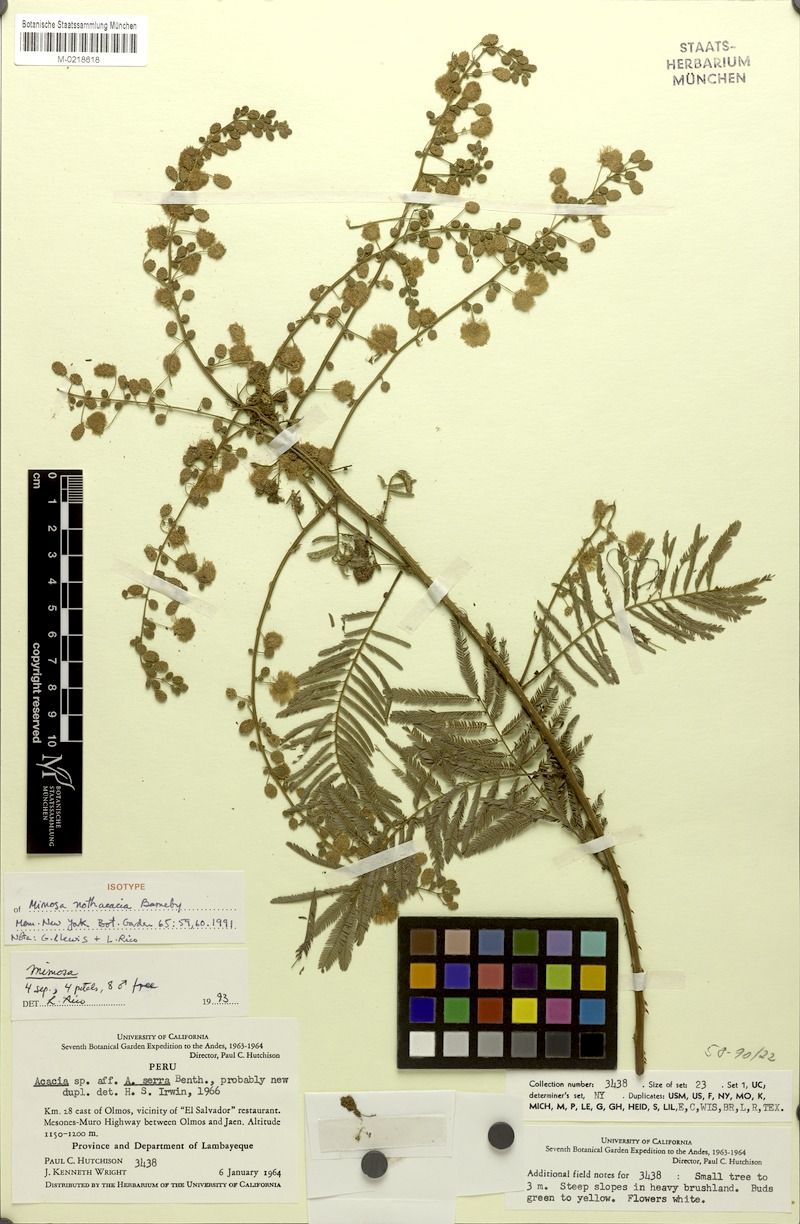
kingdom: Plantae
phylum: Tracheophyta
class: Magnoliopsida
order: Fabales
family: Fabaceae
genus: Mimosa
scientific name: Mimosa nothacacia
